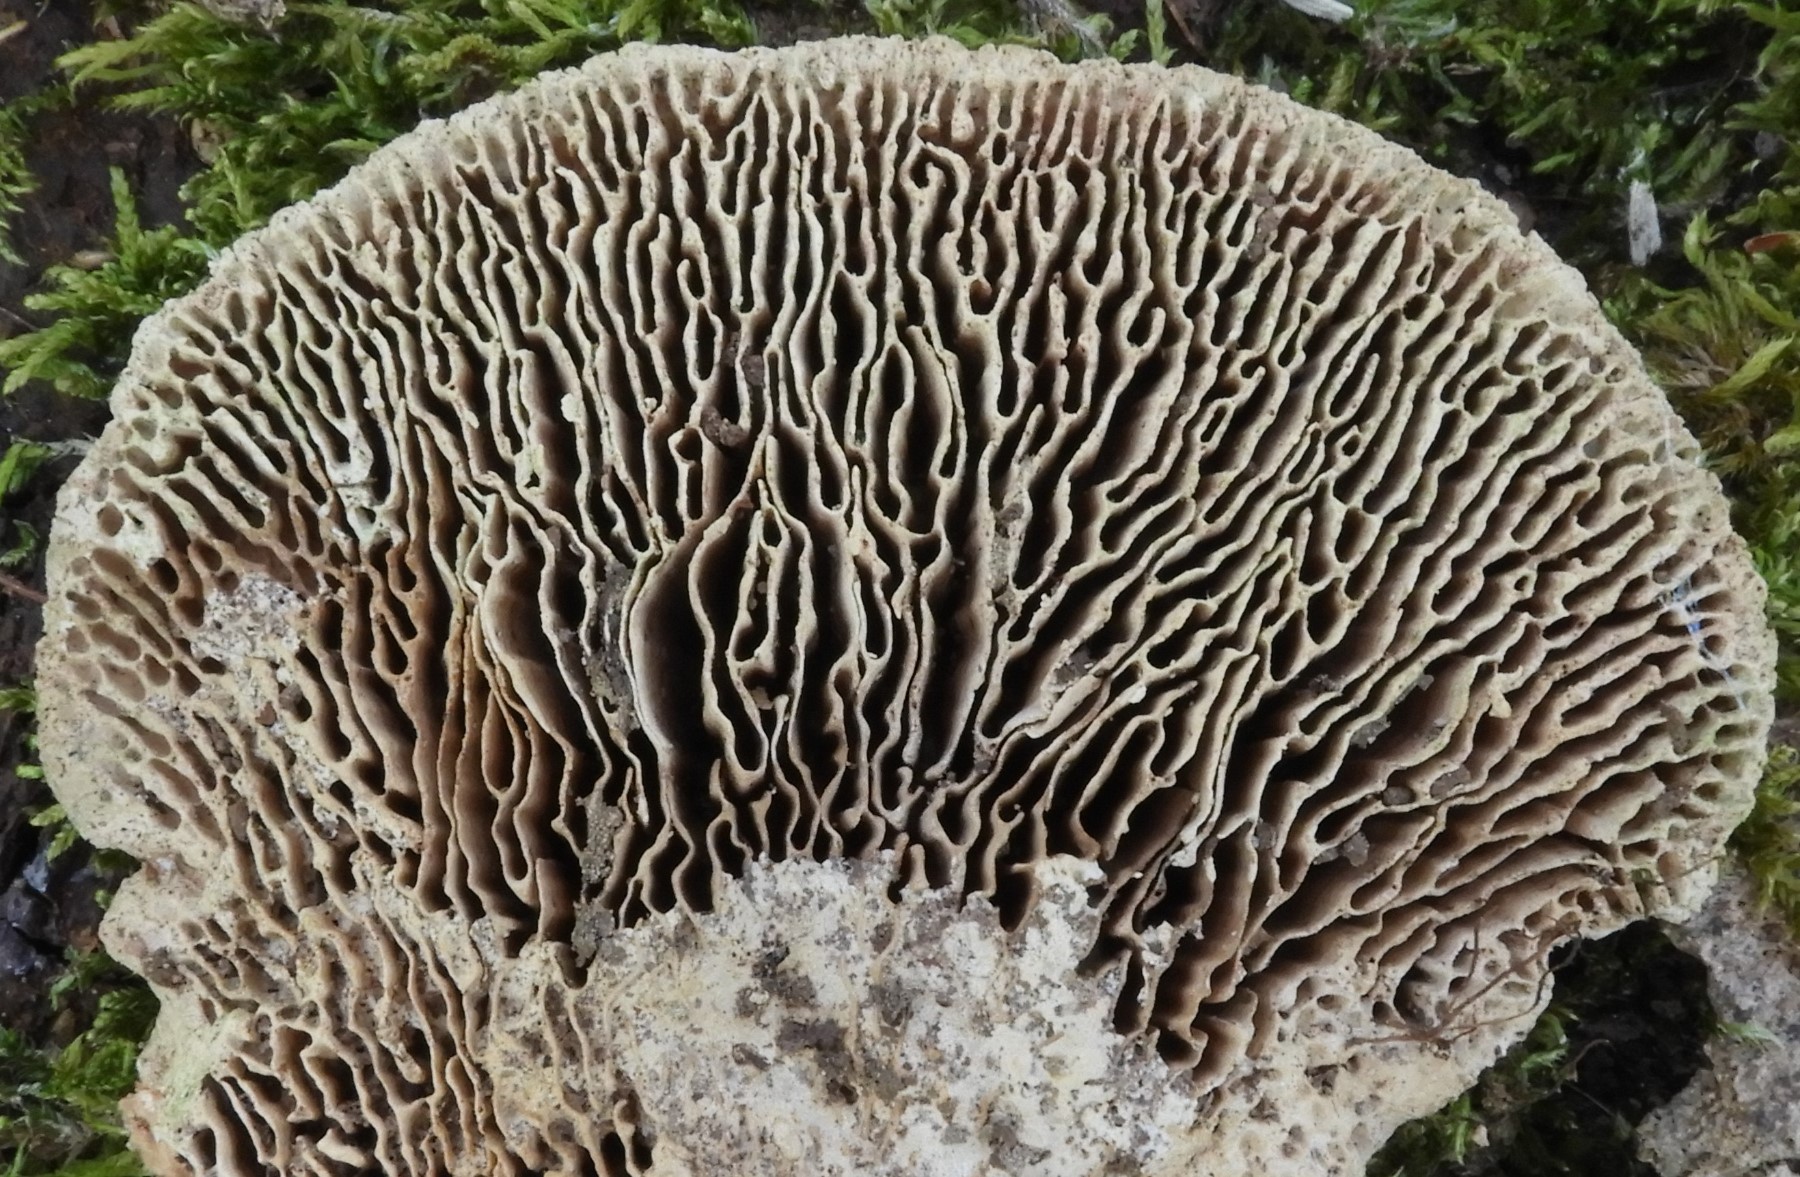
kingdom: Fungi
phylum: Basidiomycota
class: Agaricomycetes
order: Polyporales
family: Fomitopsidaceae
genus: Daedalea
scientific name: Daedalea quercina
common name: ege-labyrintsvamp
